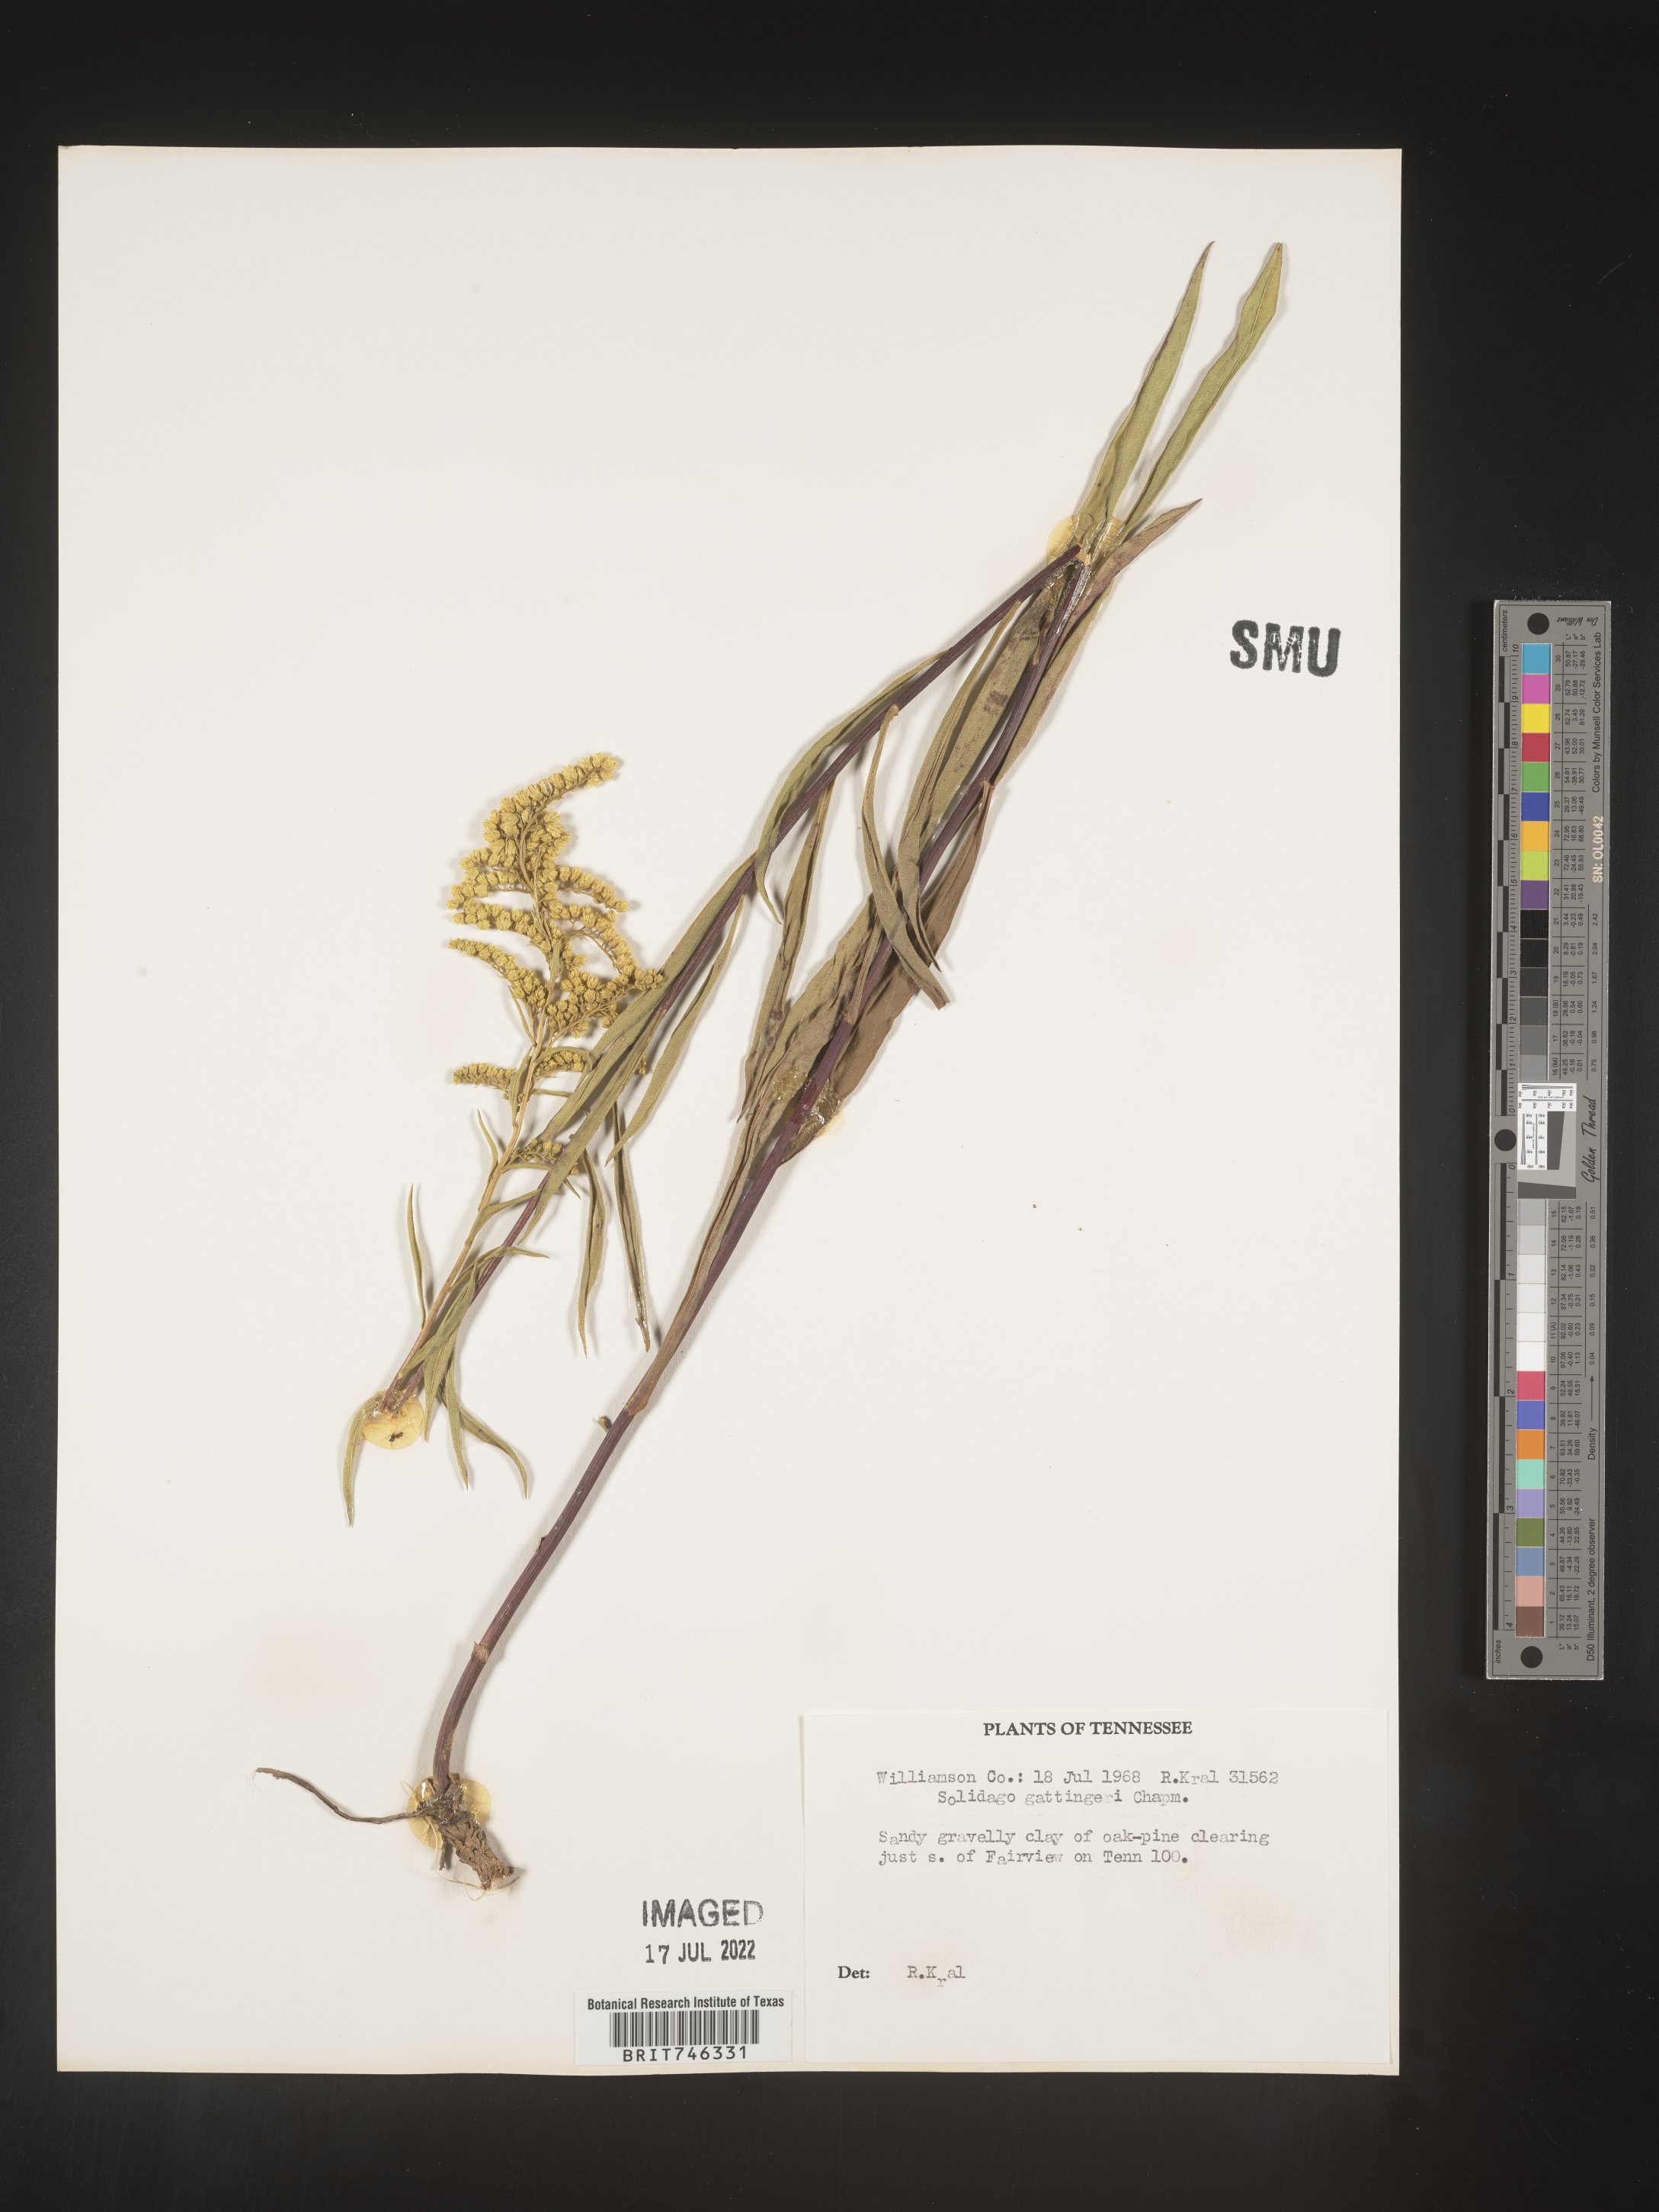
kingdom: Plantae
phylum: Tracheophyta
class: Magnoliopsida
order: Asterales
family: Asteraceae
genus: Solidago
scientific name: Solidago gattingeri
